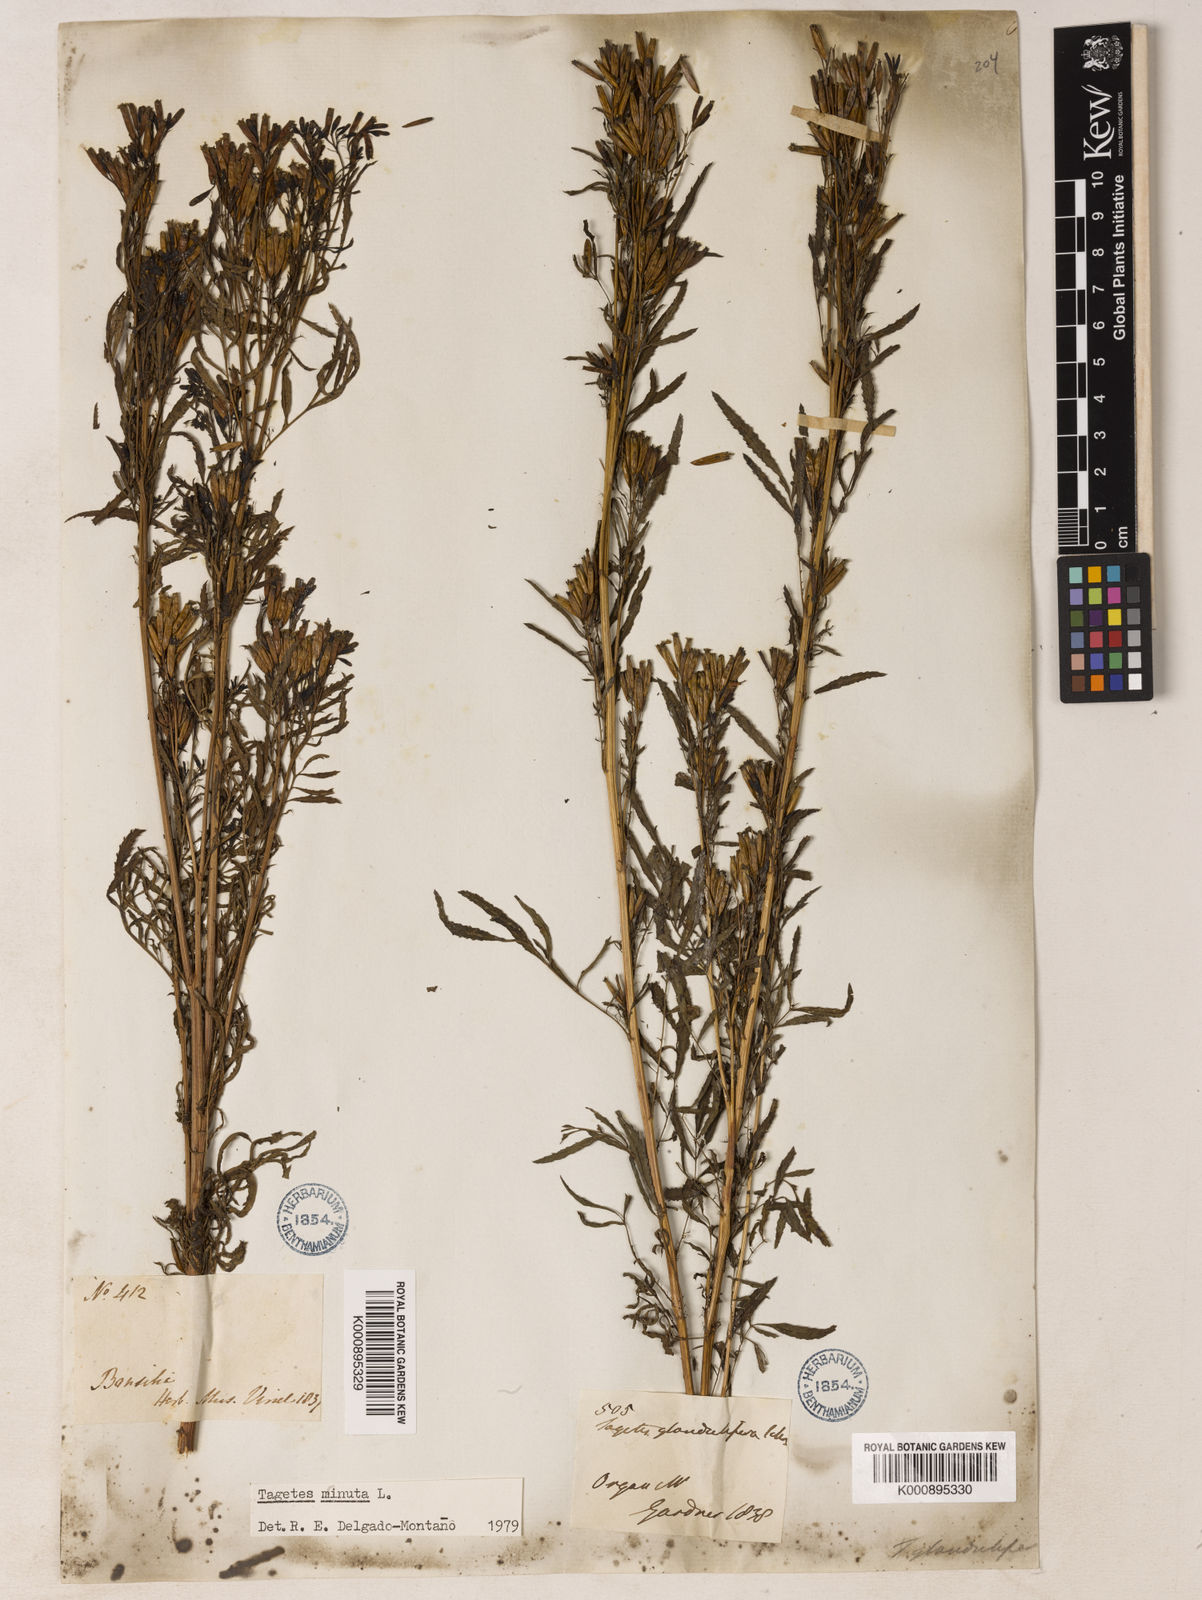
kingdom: Plantae
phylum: Tracheophyta
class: Magnoliopsida
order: Asterales
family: Asteraceae
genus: Tagetes
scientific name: Tagetes minuta
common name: Muster john henry
